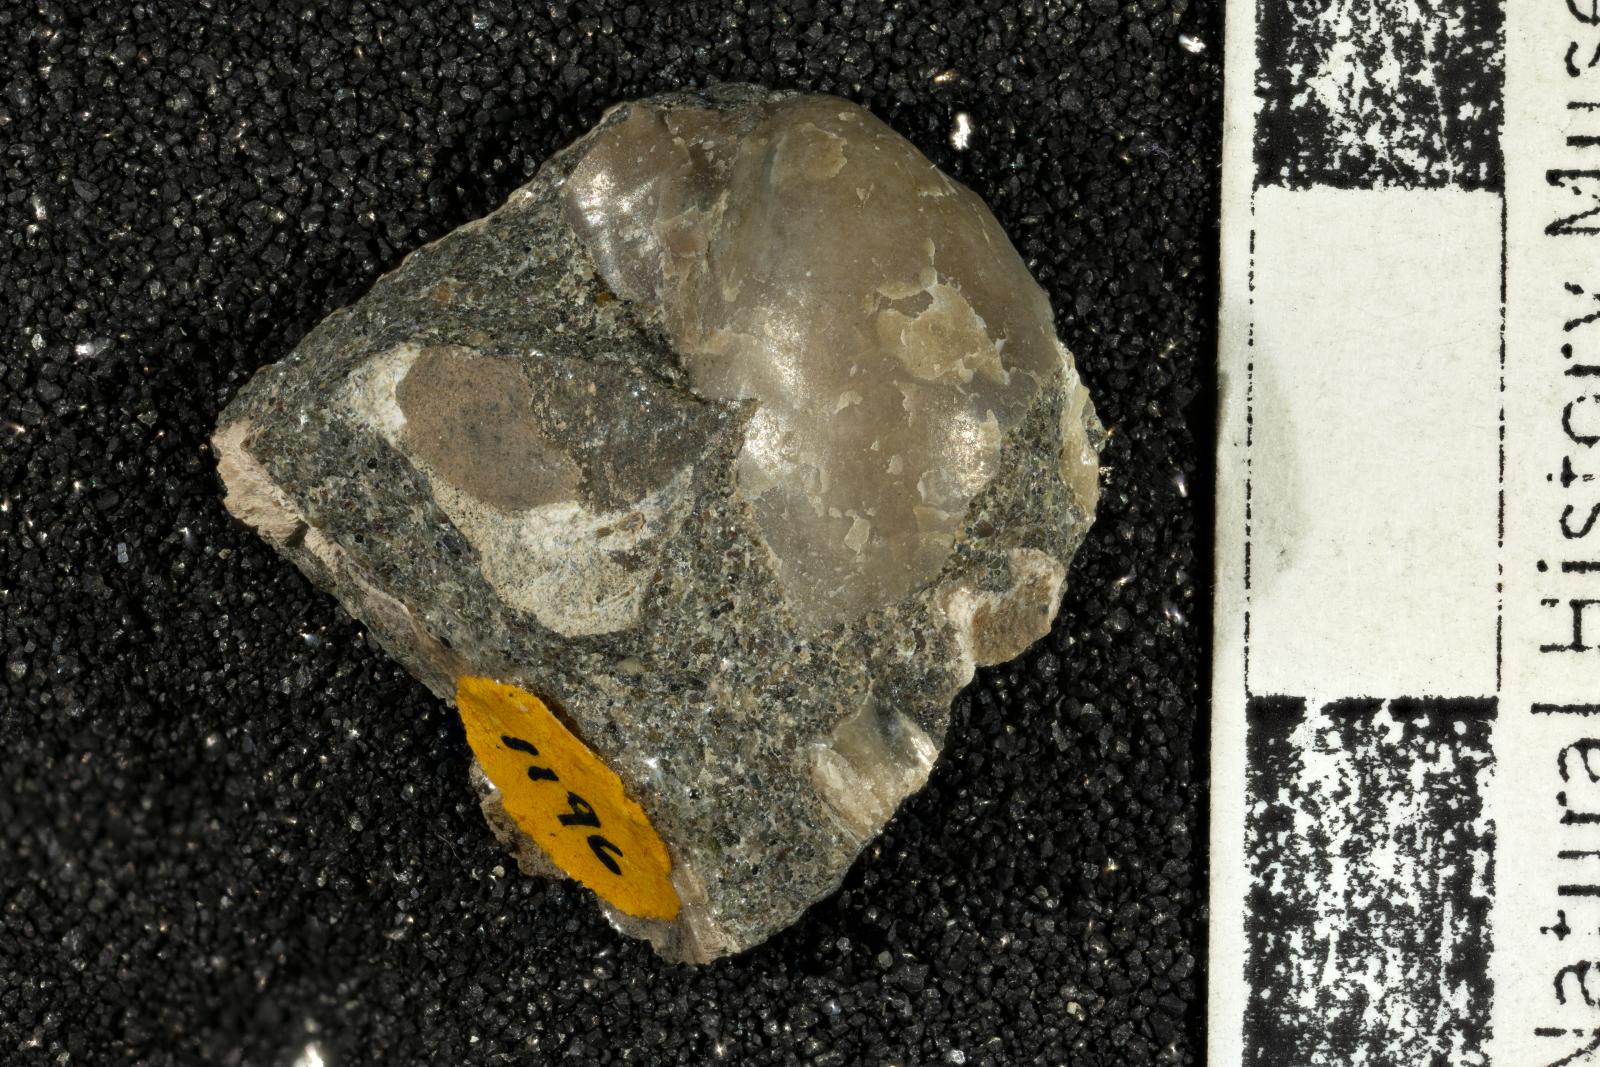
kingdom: Animalia
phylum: Mollusca
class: Bivalvia
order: Ostreida
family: Pteriidae
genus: Pteria
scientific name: Pteria pellucida
